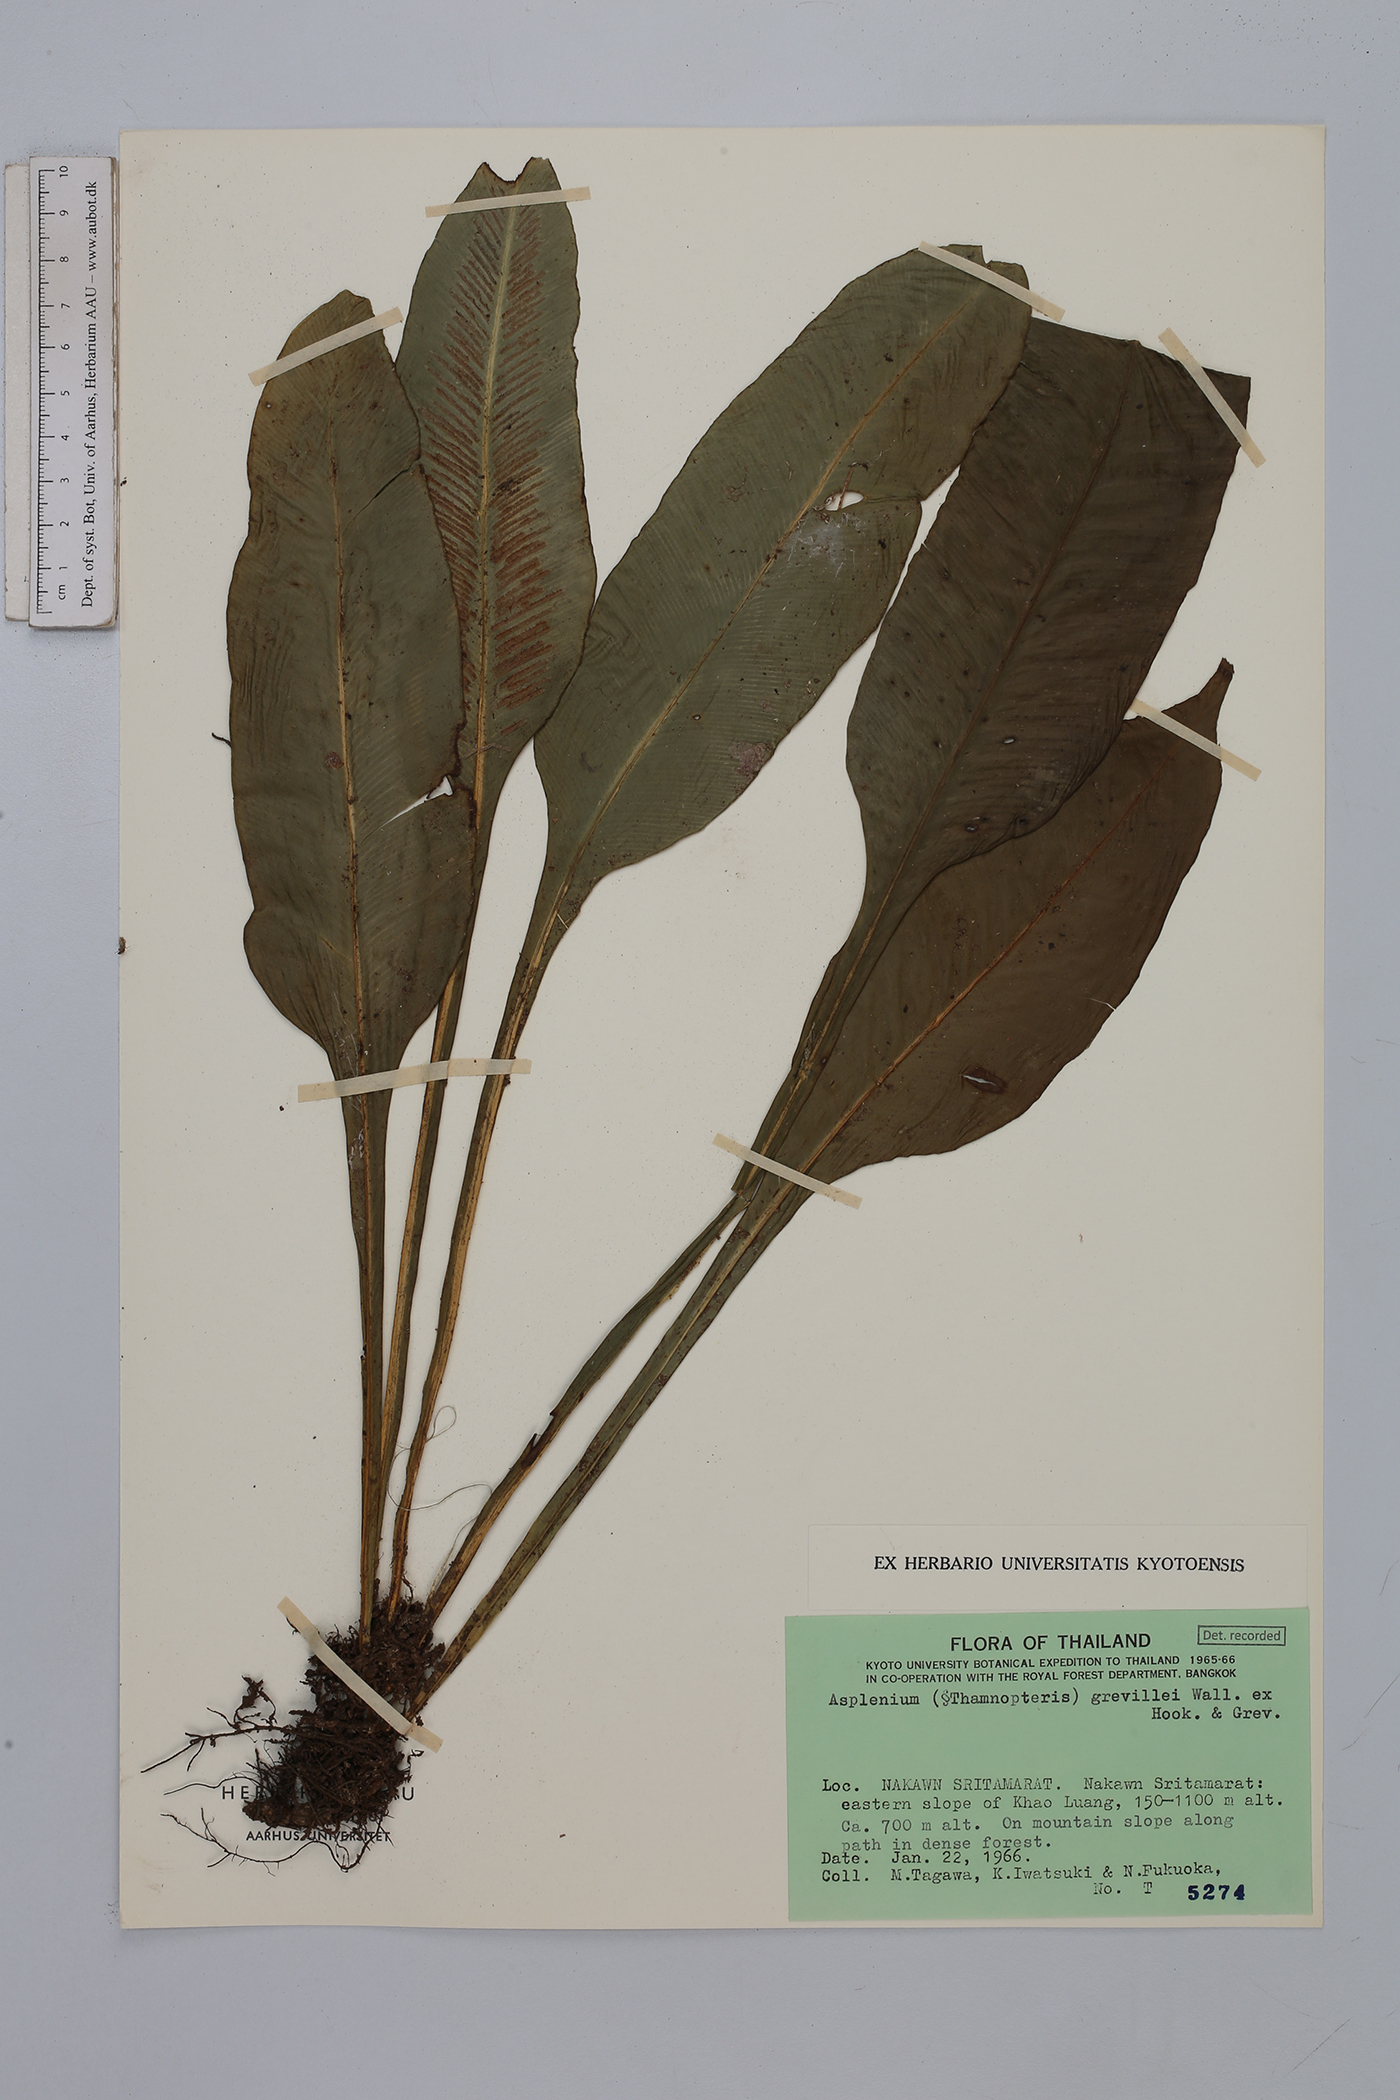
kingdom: Plantae
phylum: Tracheophyta
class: Polypodiopsida
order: Polypodiales
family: Aspleniaceae
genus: Asplenium
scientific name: Asplenium grevillei
